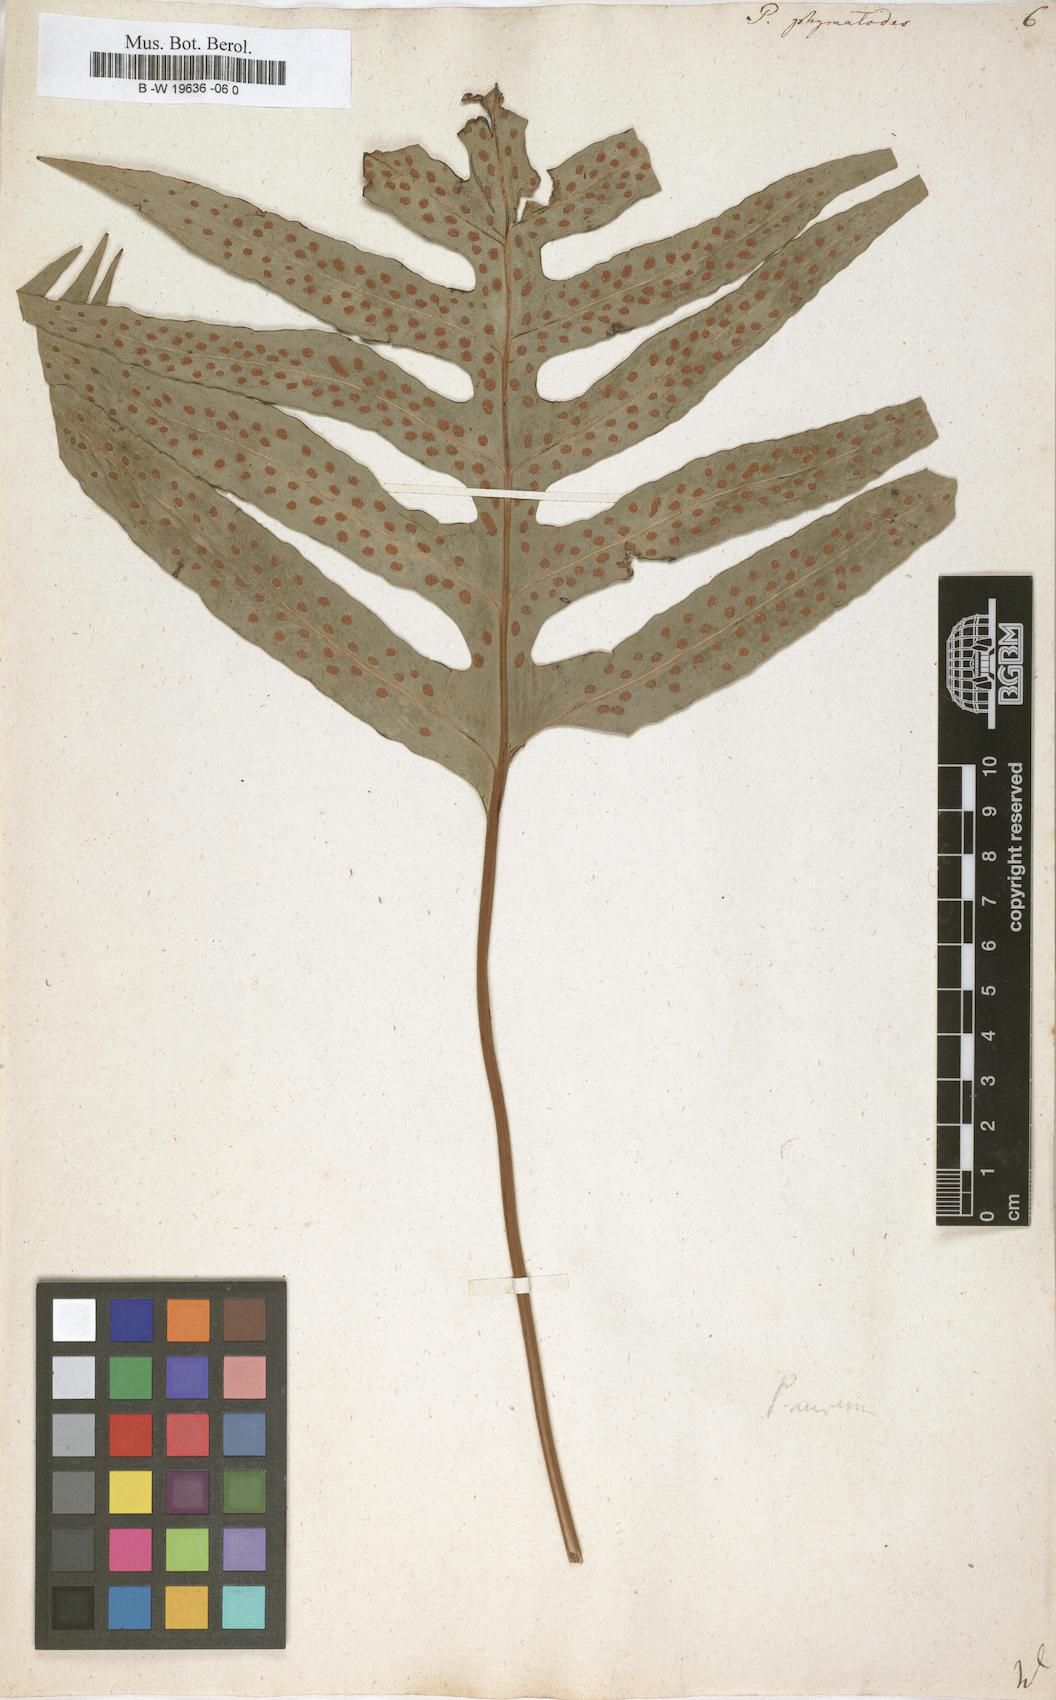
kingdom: Plantae
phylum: Tracheophyta
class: Polypodiopsida
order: Polypodiales
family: Polypodiaceae
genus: Microsorum
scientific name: Microsorum scolopendria
